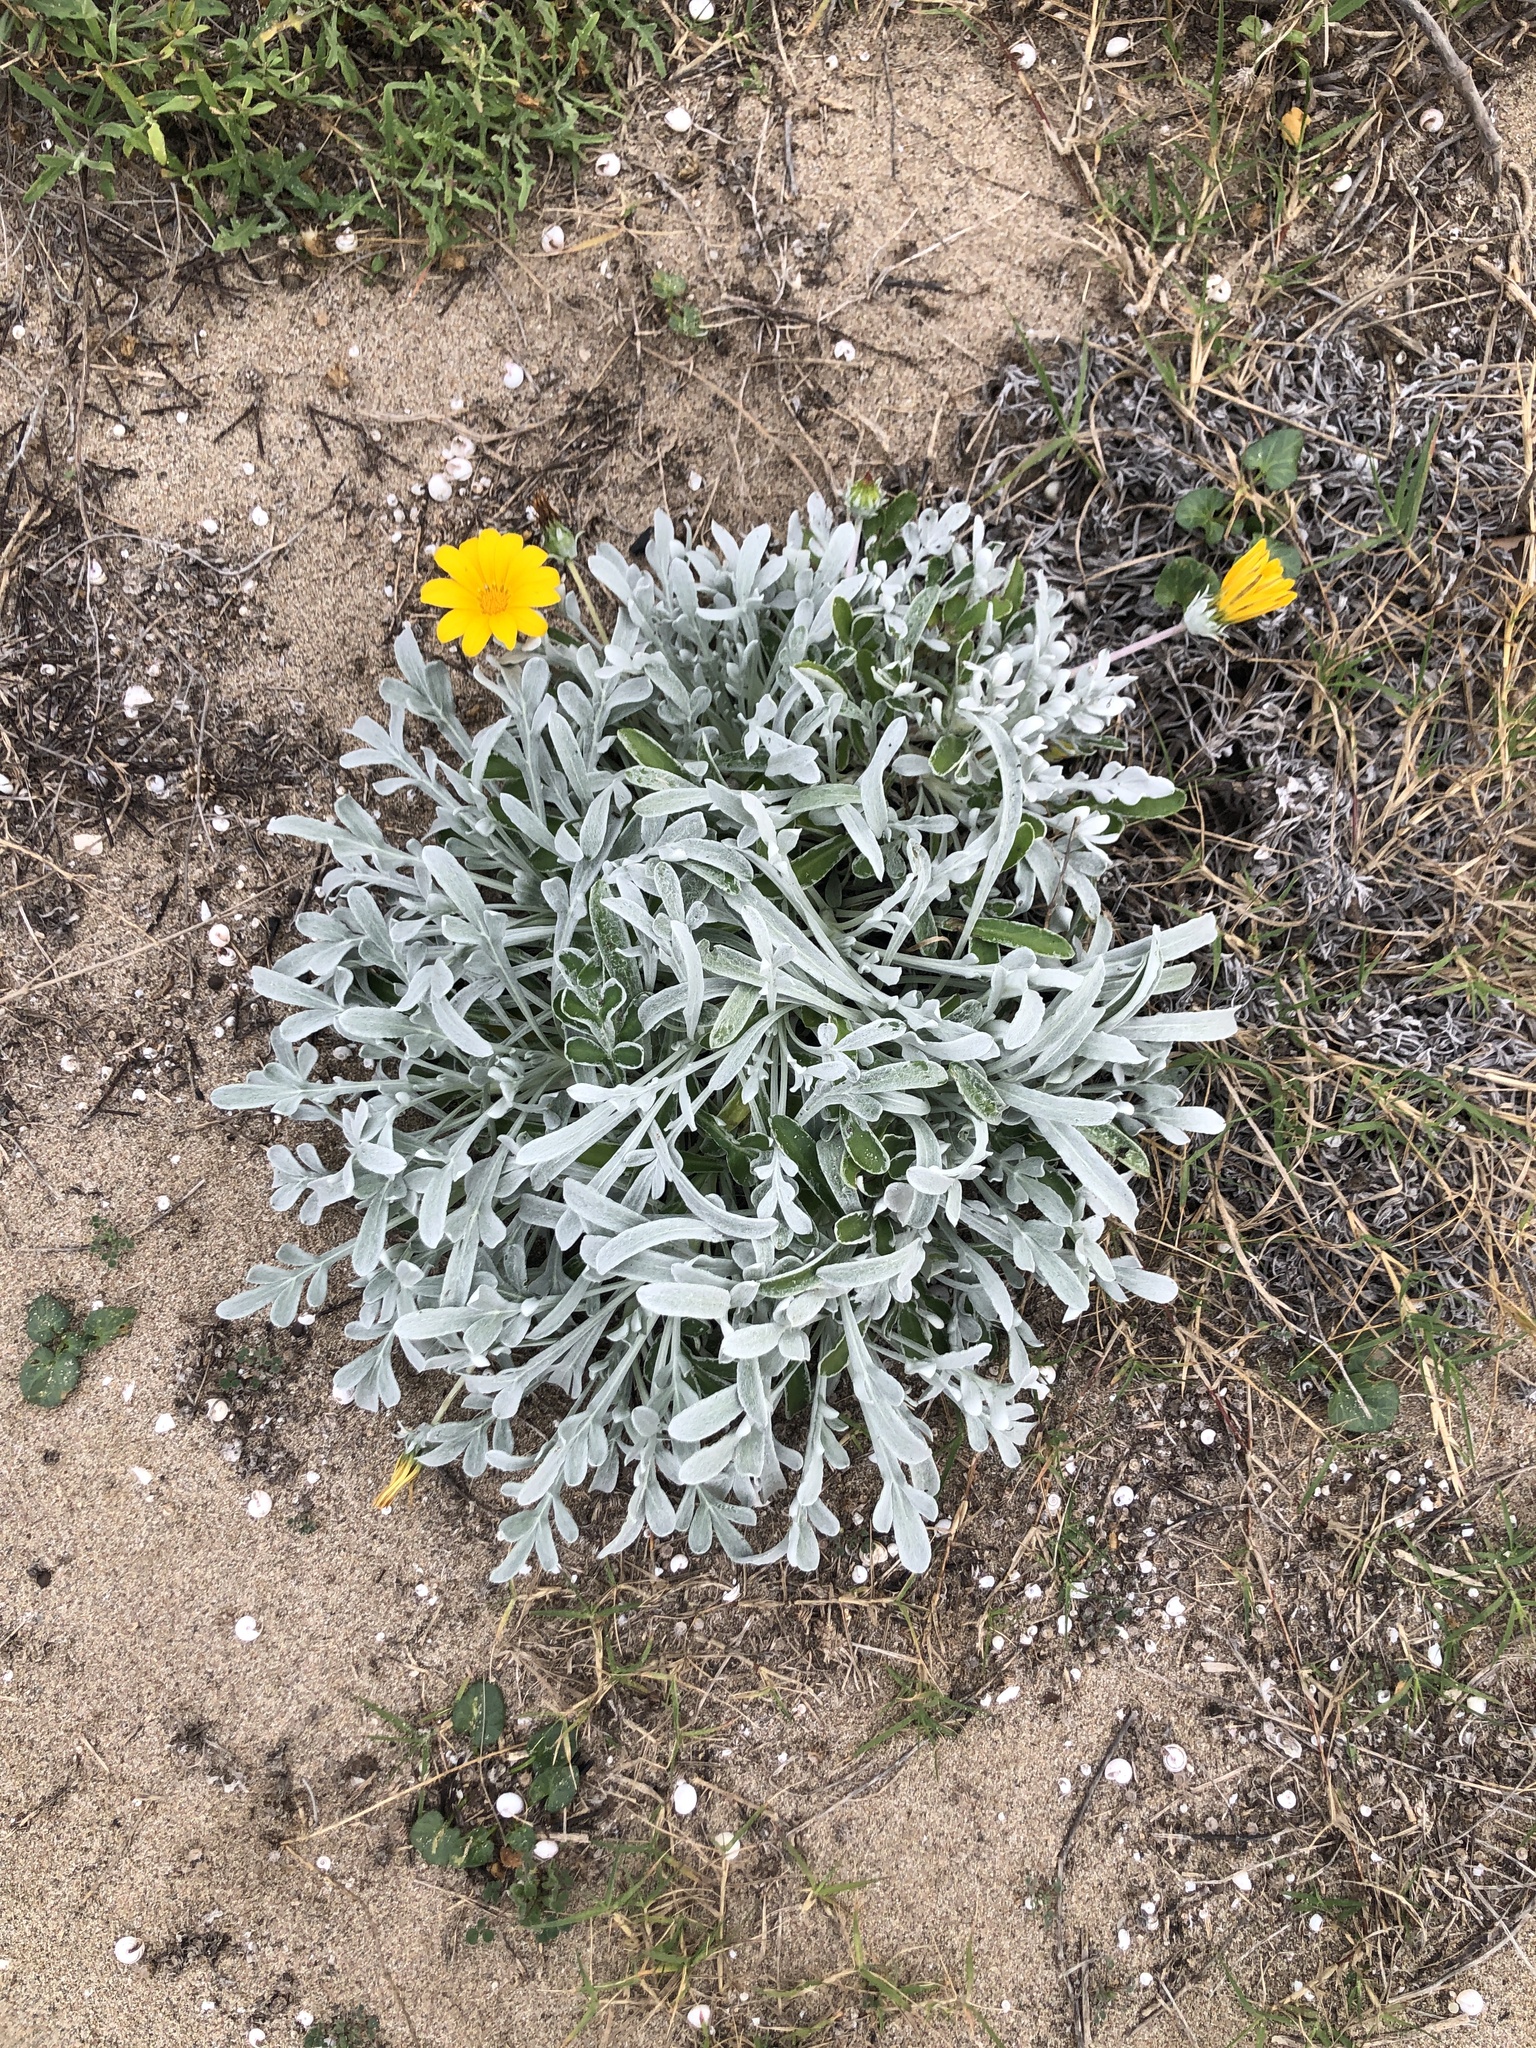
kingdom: Plantae
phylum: Tracheophyta
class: Magnoliopsida
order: Asterales
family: Asteraceae
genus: Gazania
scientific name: Gazania rigens
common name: Treasureflower
